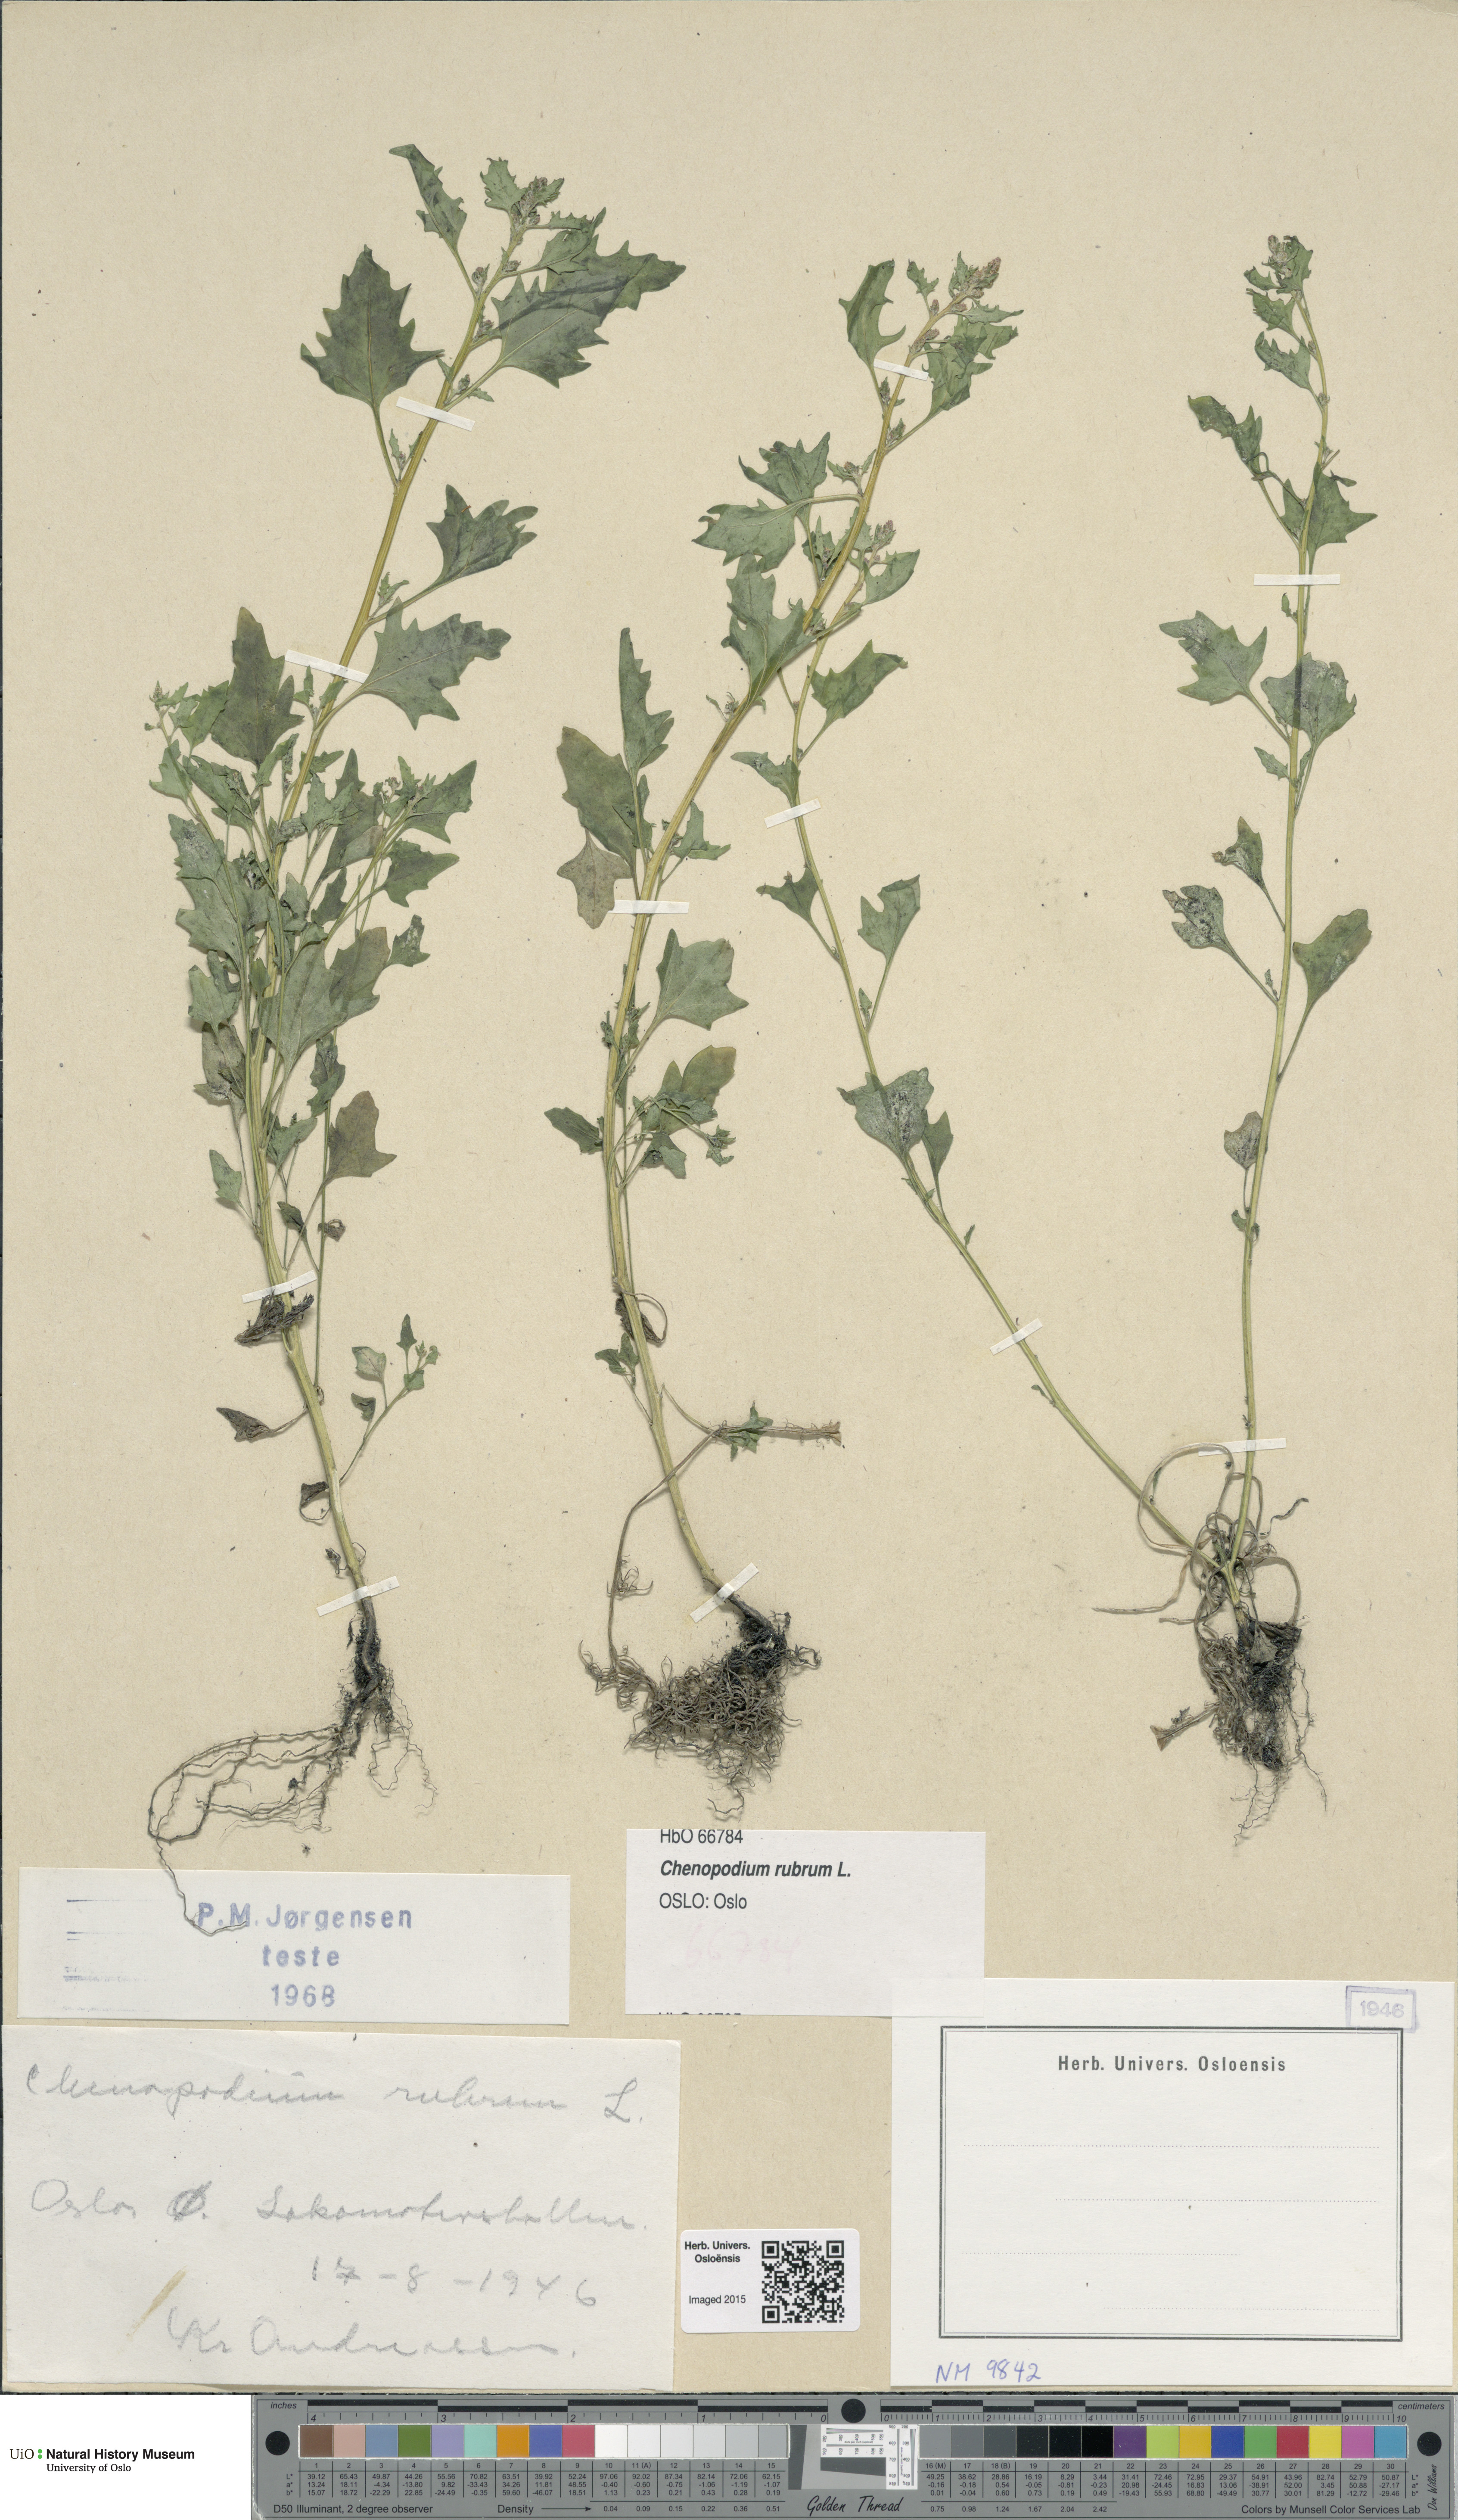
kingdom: Plantae
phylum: Tracheophyta
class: Magnoliopsida
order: Caryophyllales
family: Amaranthaceae
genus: Oxybasis
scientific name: Oxybasis rubra
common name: Red goosefoot
